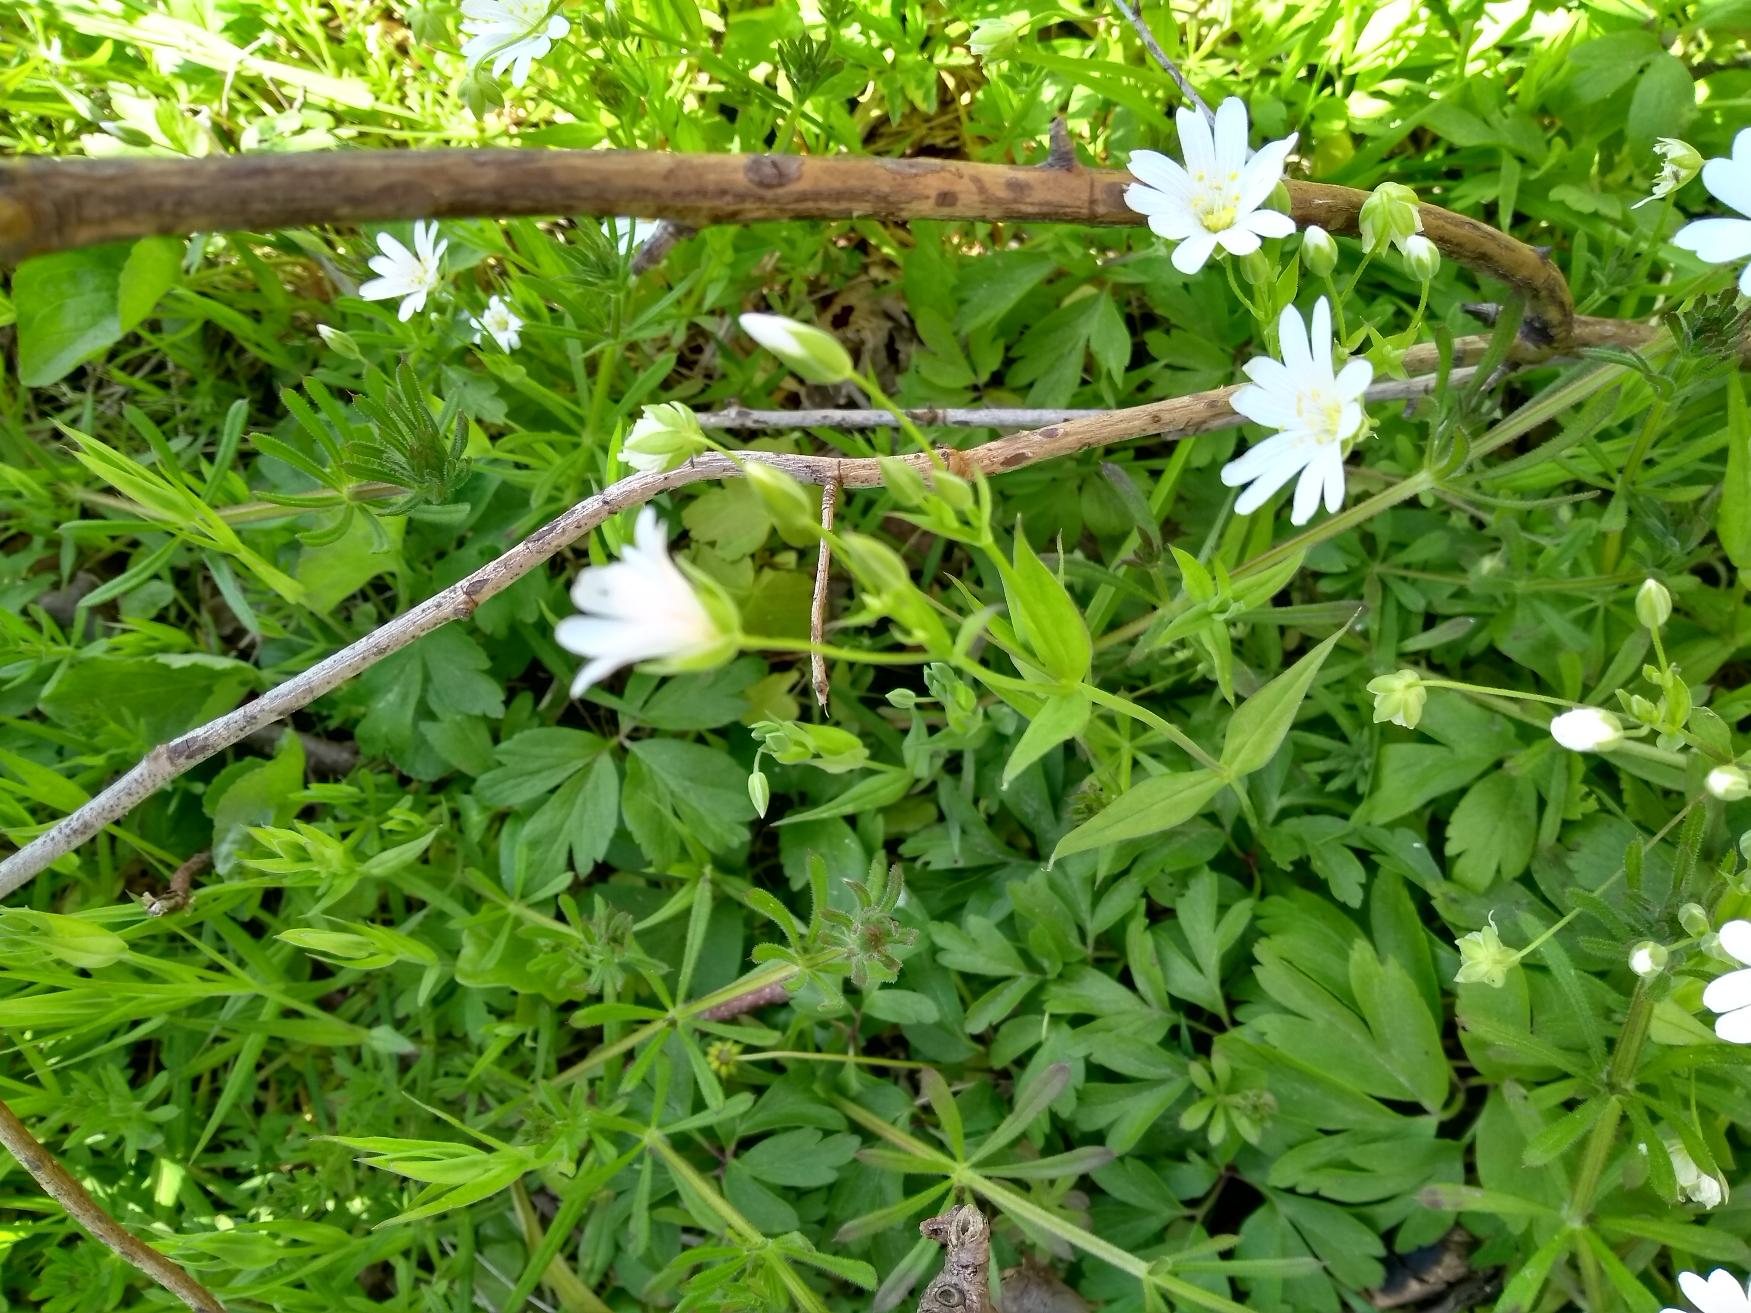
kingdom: Plantae
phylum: Tracheophyta
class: Magnoliopsida
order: Caryophyllales
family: Caryophyllaceae
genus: Rabelera
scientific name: Rabelera holostea
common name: Stor fladstjerne
